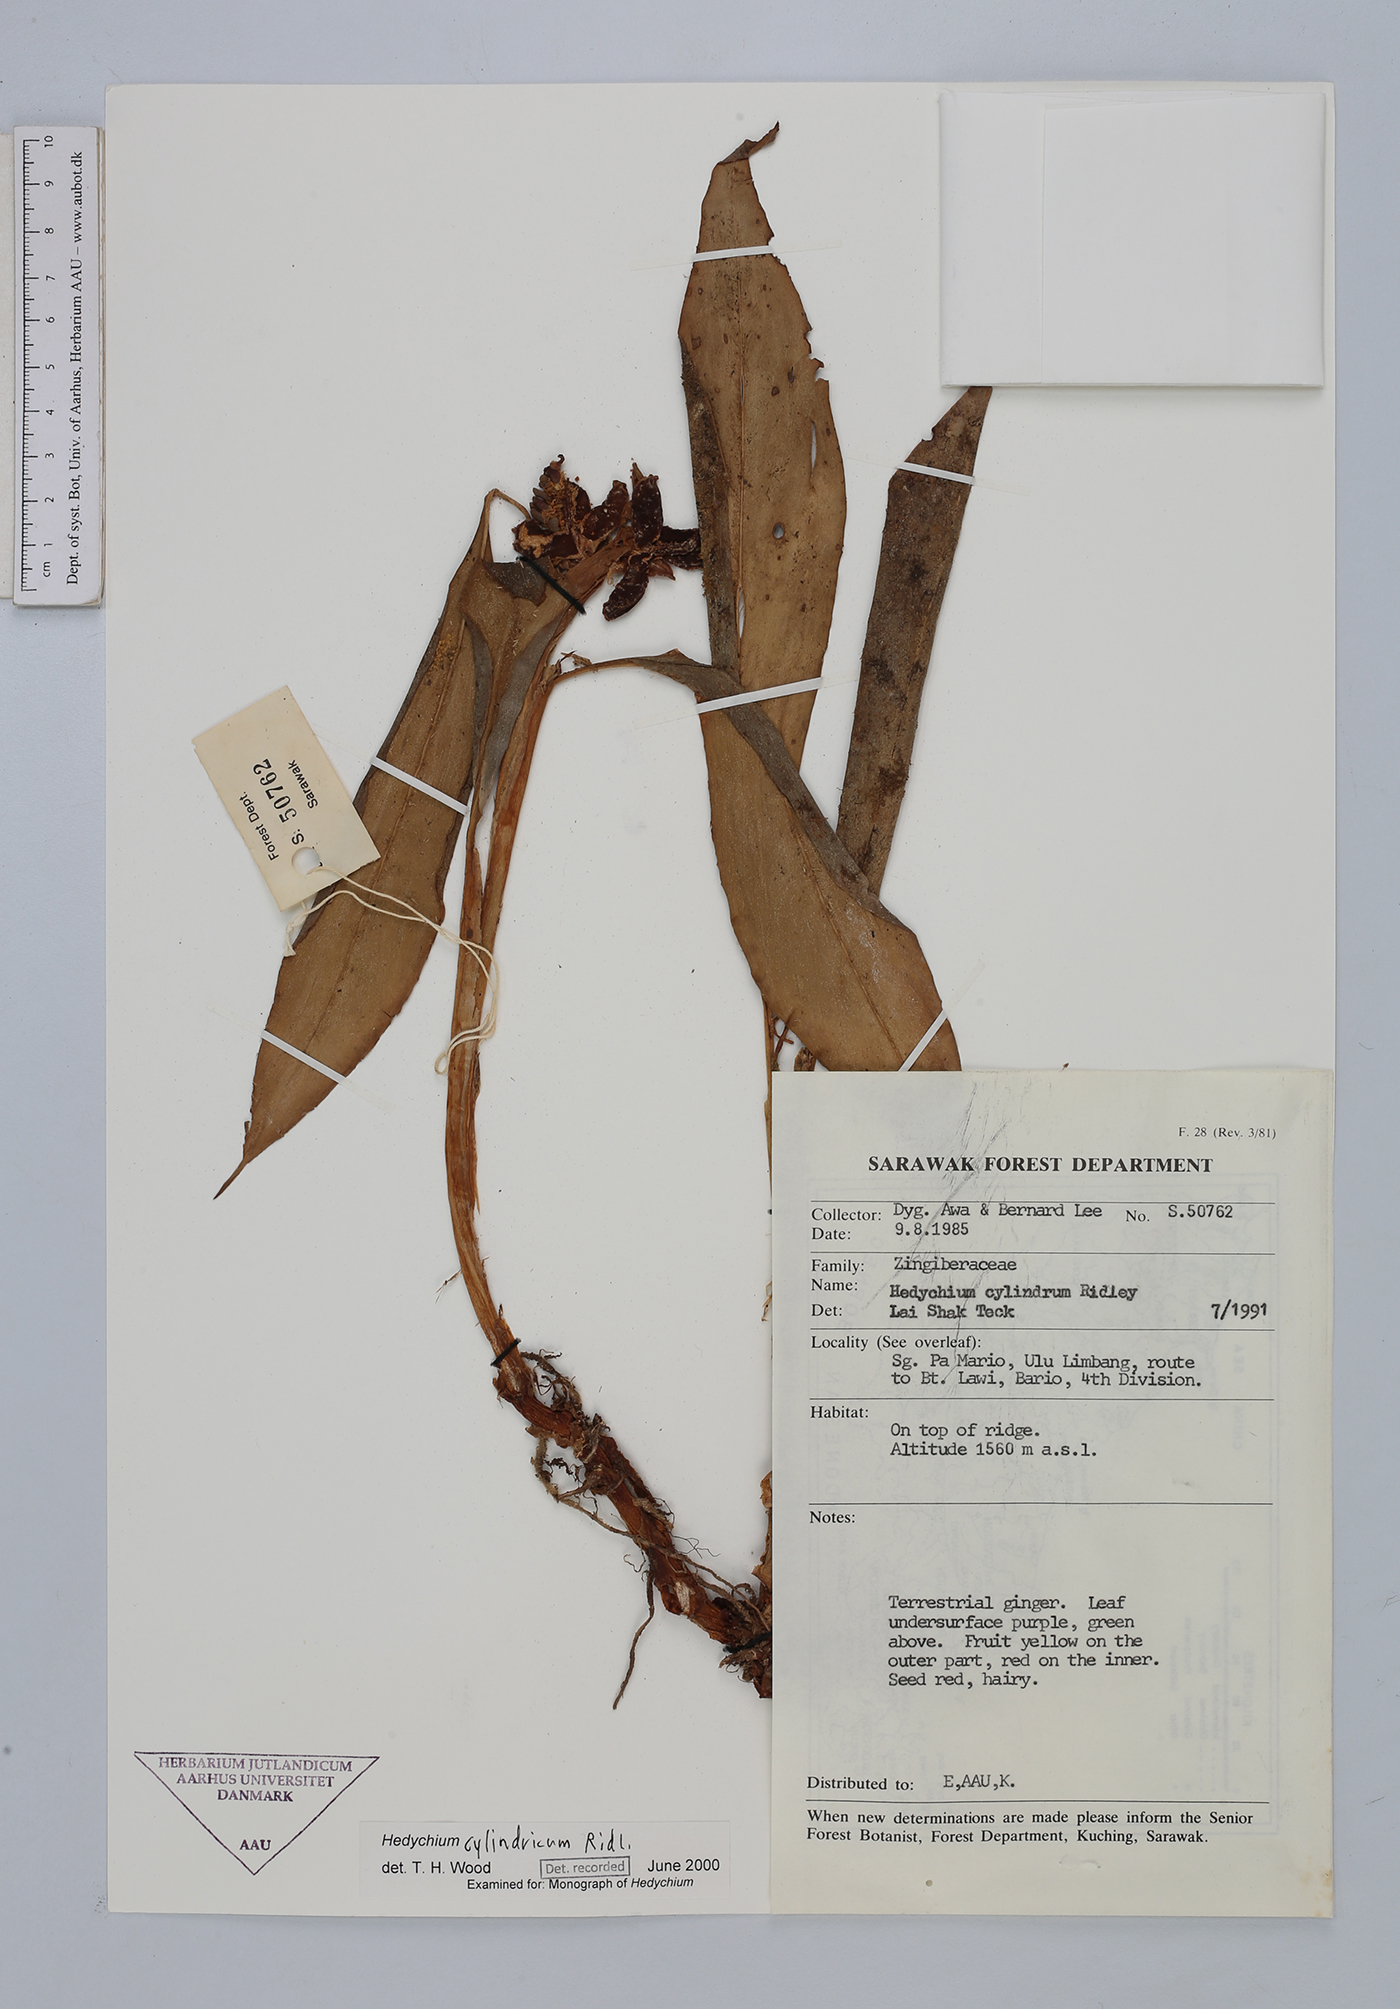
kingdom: Plantae
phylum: Tracheophyta
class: Liliopsida
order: Zingiberales
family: Zingiberaceae
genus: Hedychium
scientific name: Hedychium cylindricum
